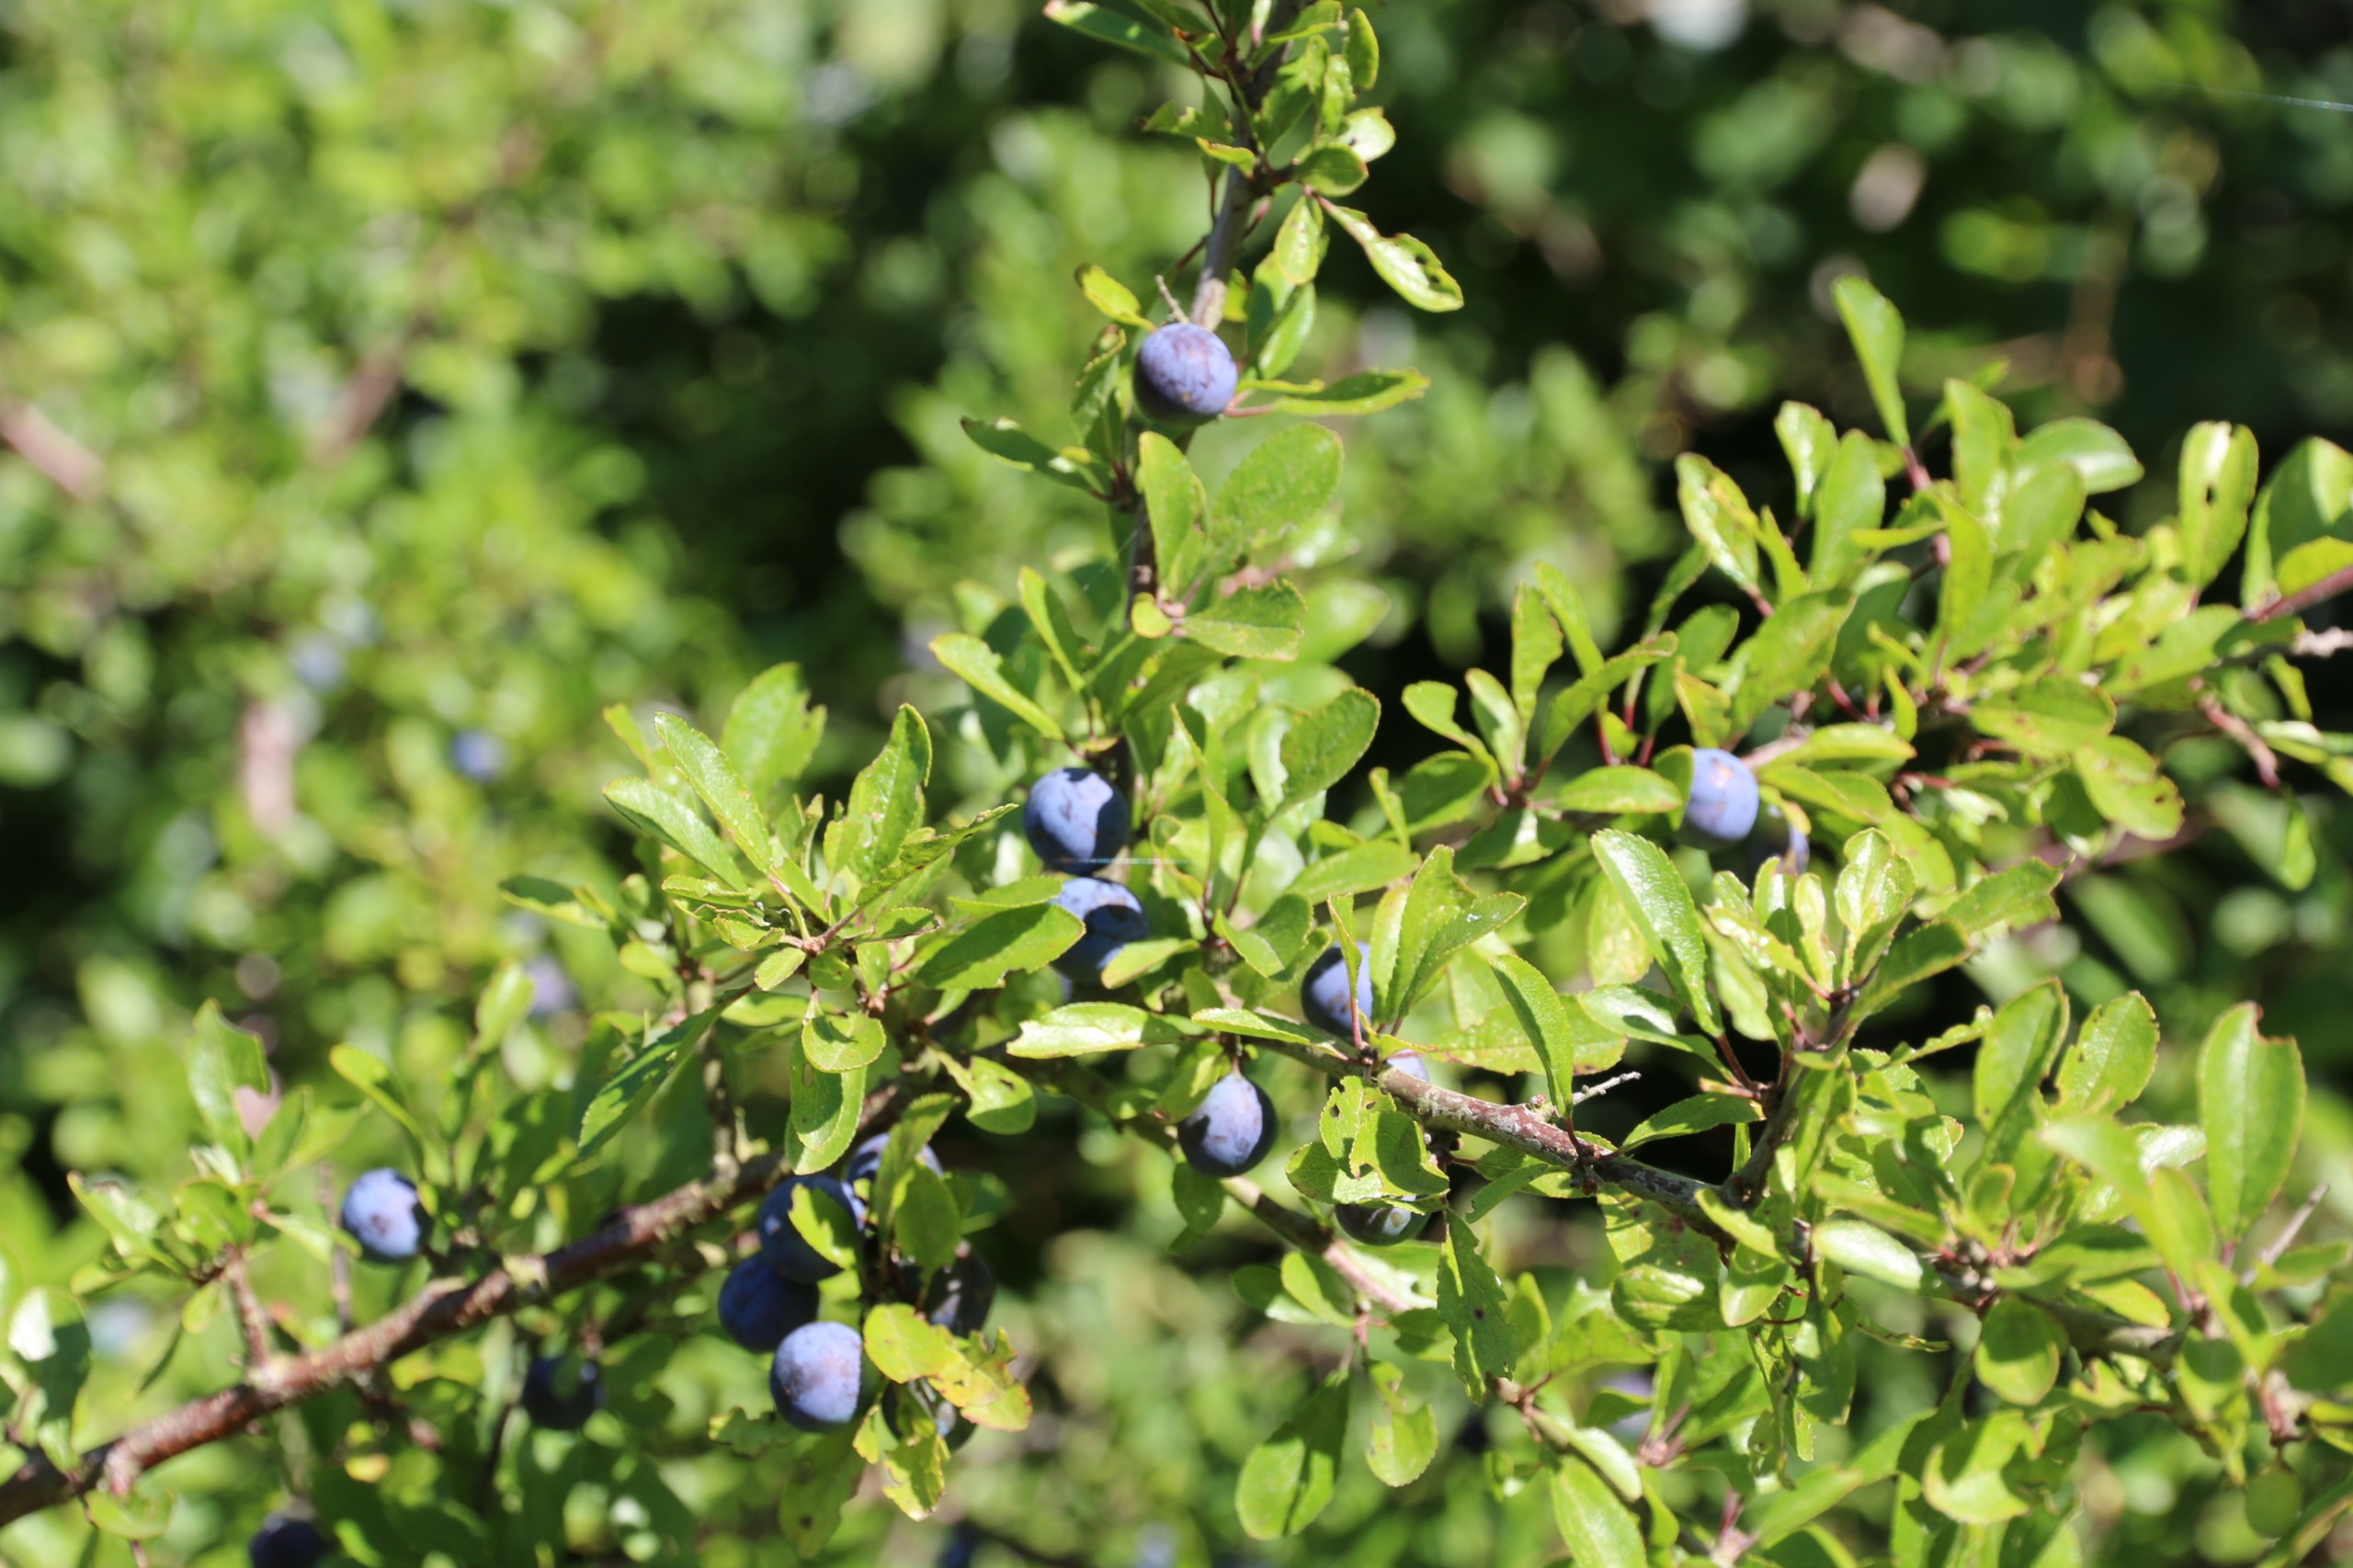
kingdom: Plantae
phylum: Tracheophyta
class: Magnoliopsida
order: Rosales
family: Rosaceae
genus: Prunus
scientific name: Prunus spinosa
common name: Slåen
